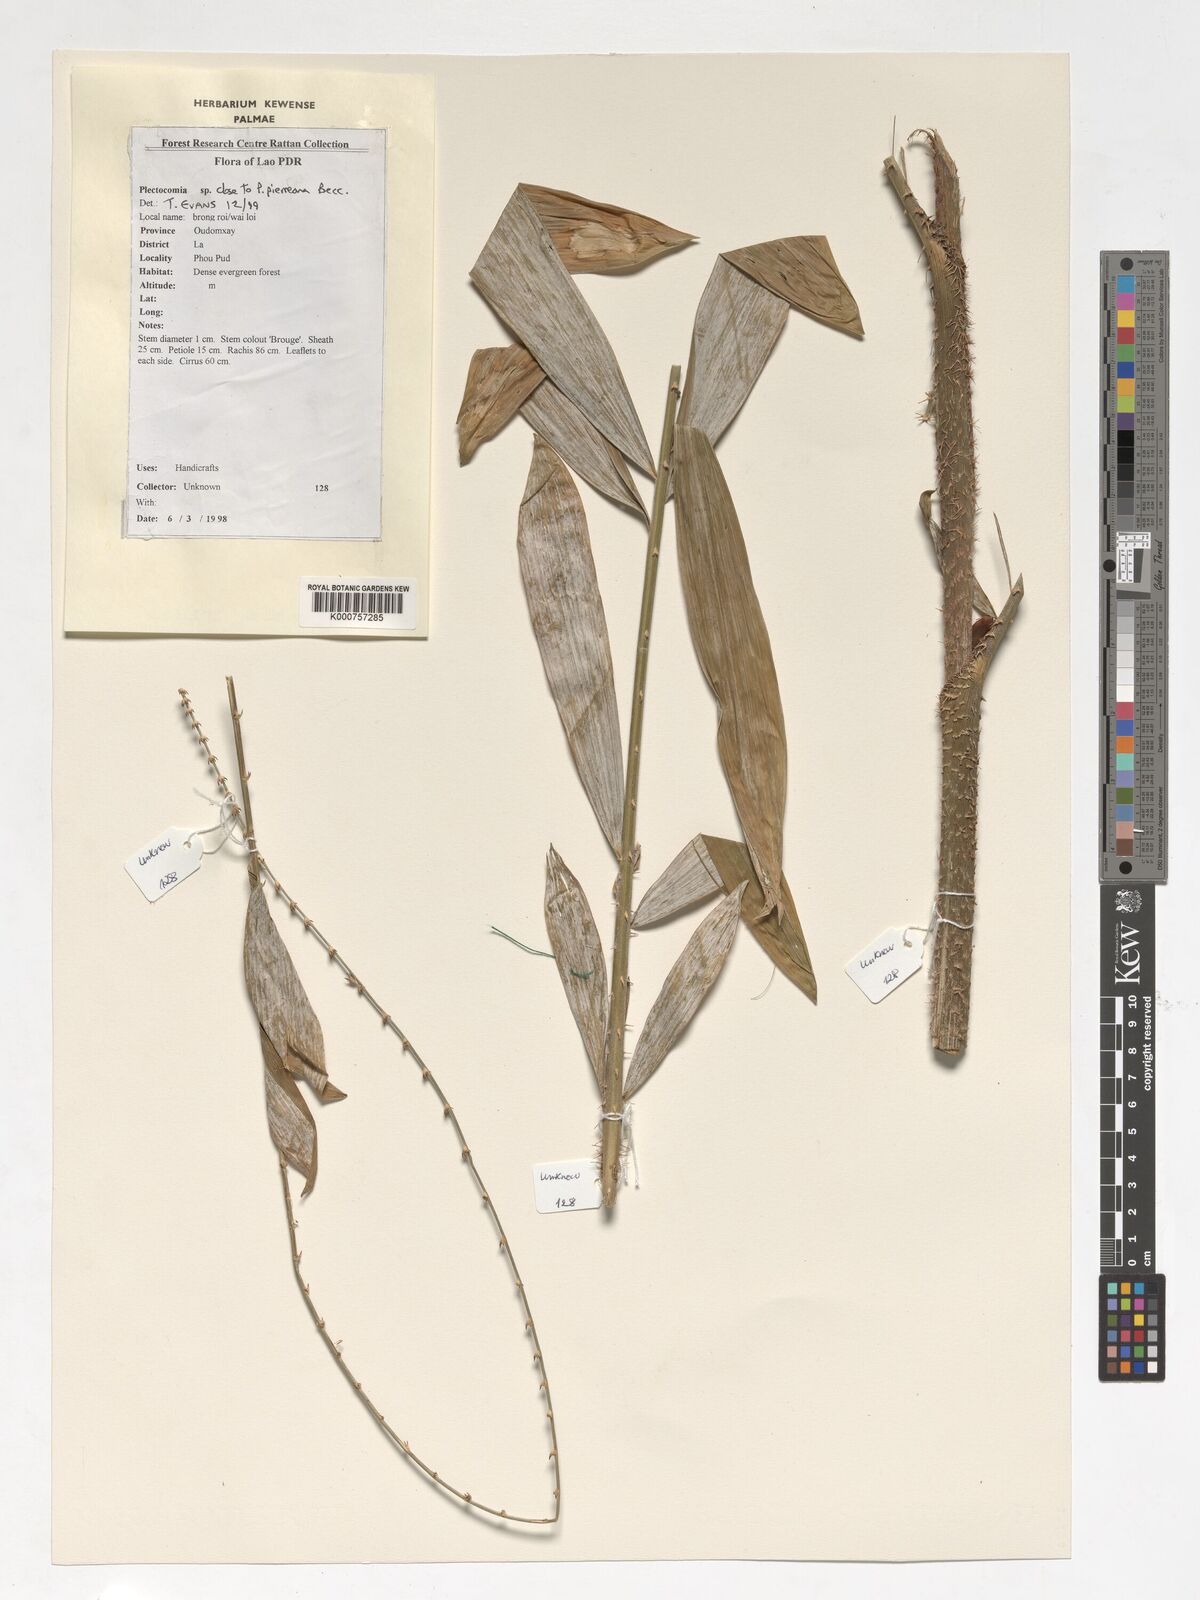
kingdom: Plantae
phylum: Tracheophyta
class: Liliopsida
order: Arecales
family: Arecaceae
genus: Plectocomia
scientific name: Plectocomia pierreana
